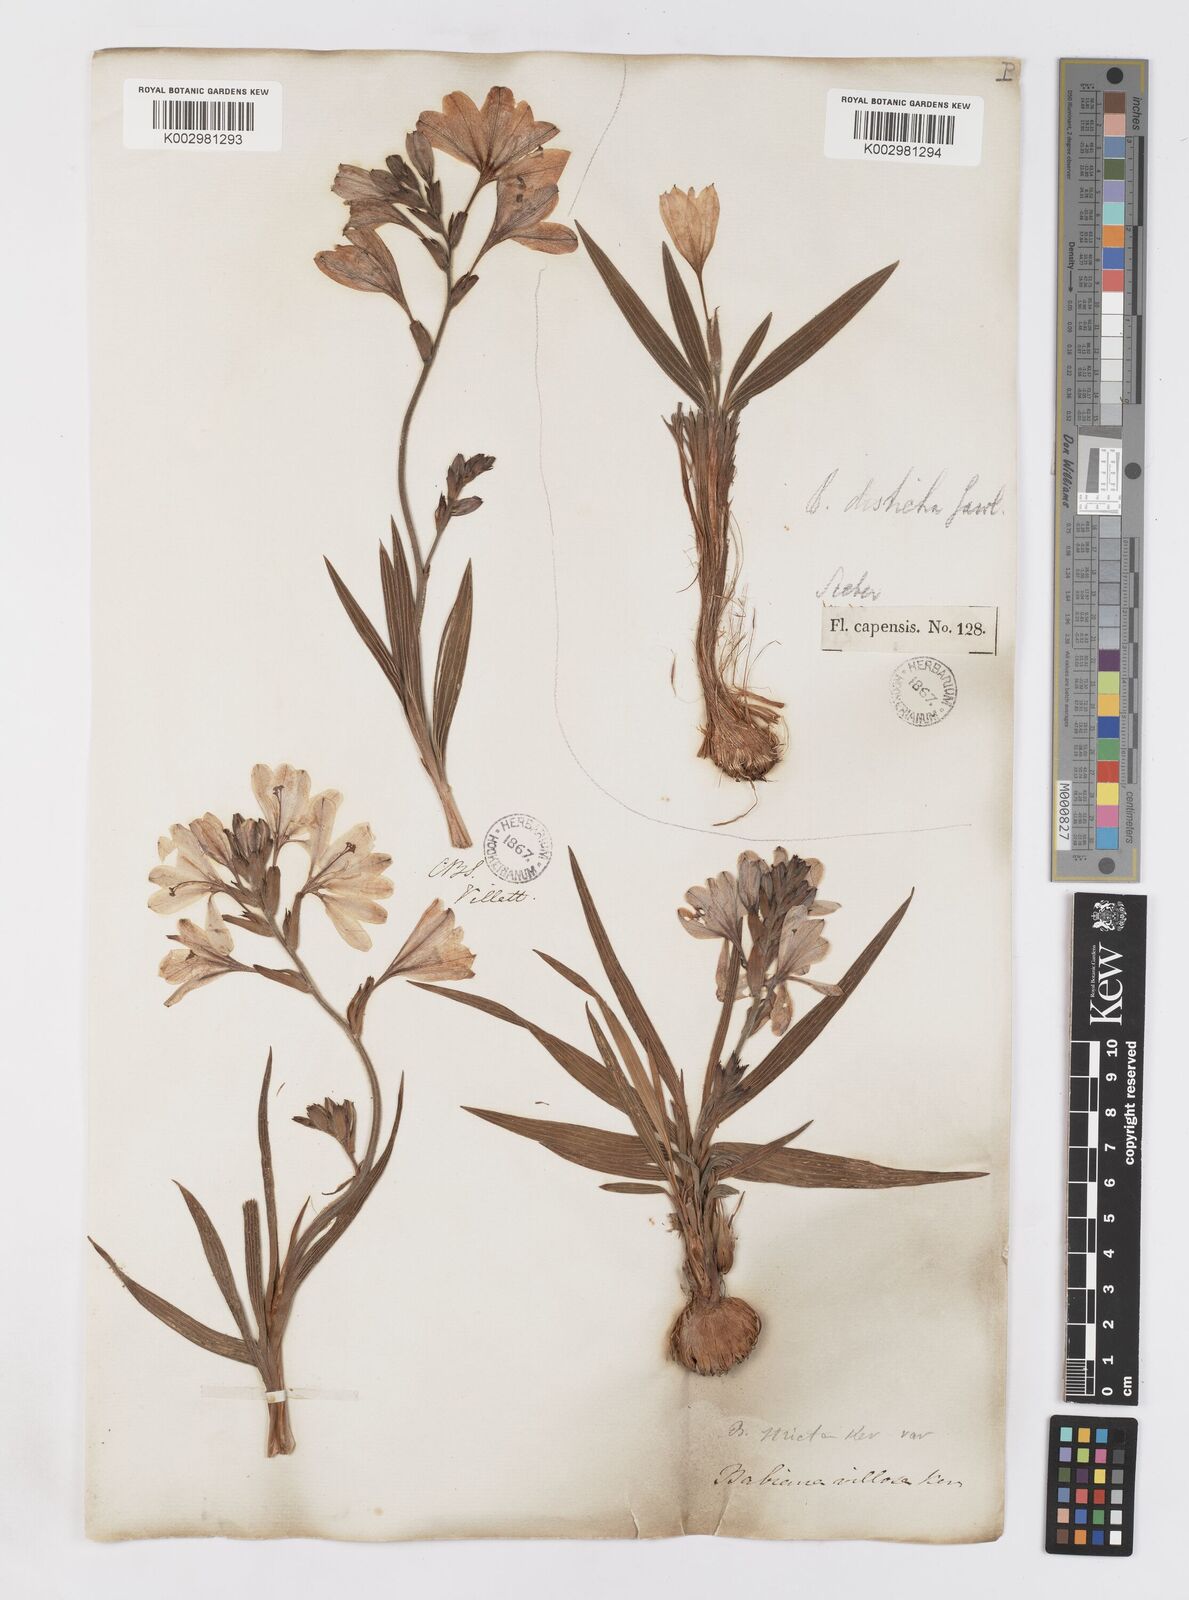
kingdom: Plantae
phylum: Tracheophyta
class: Liliopsida
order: Asparagales
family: Iridaceae
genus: Babiana
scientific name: Babiana nervosa
